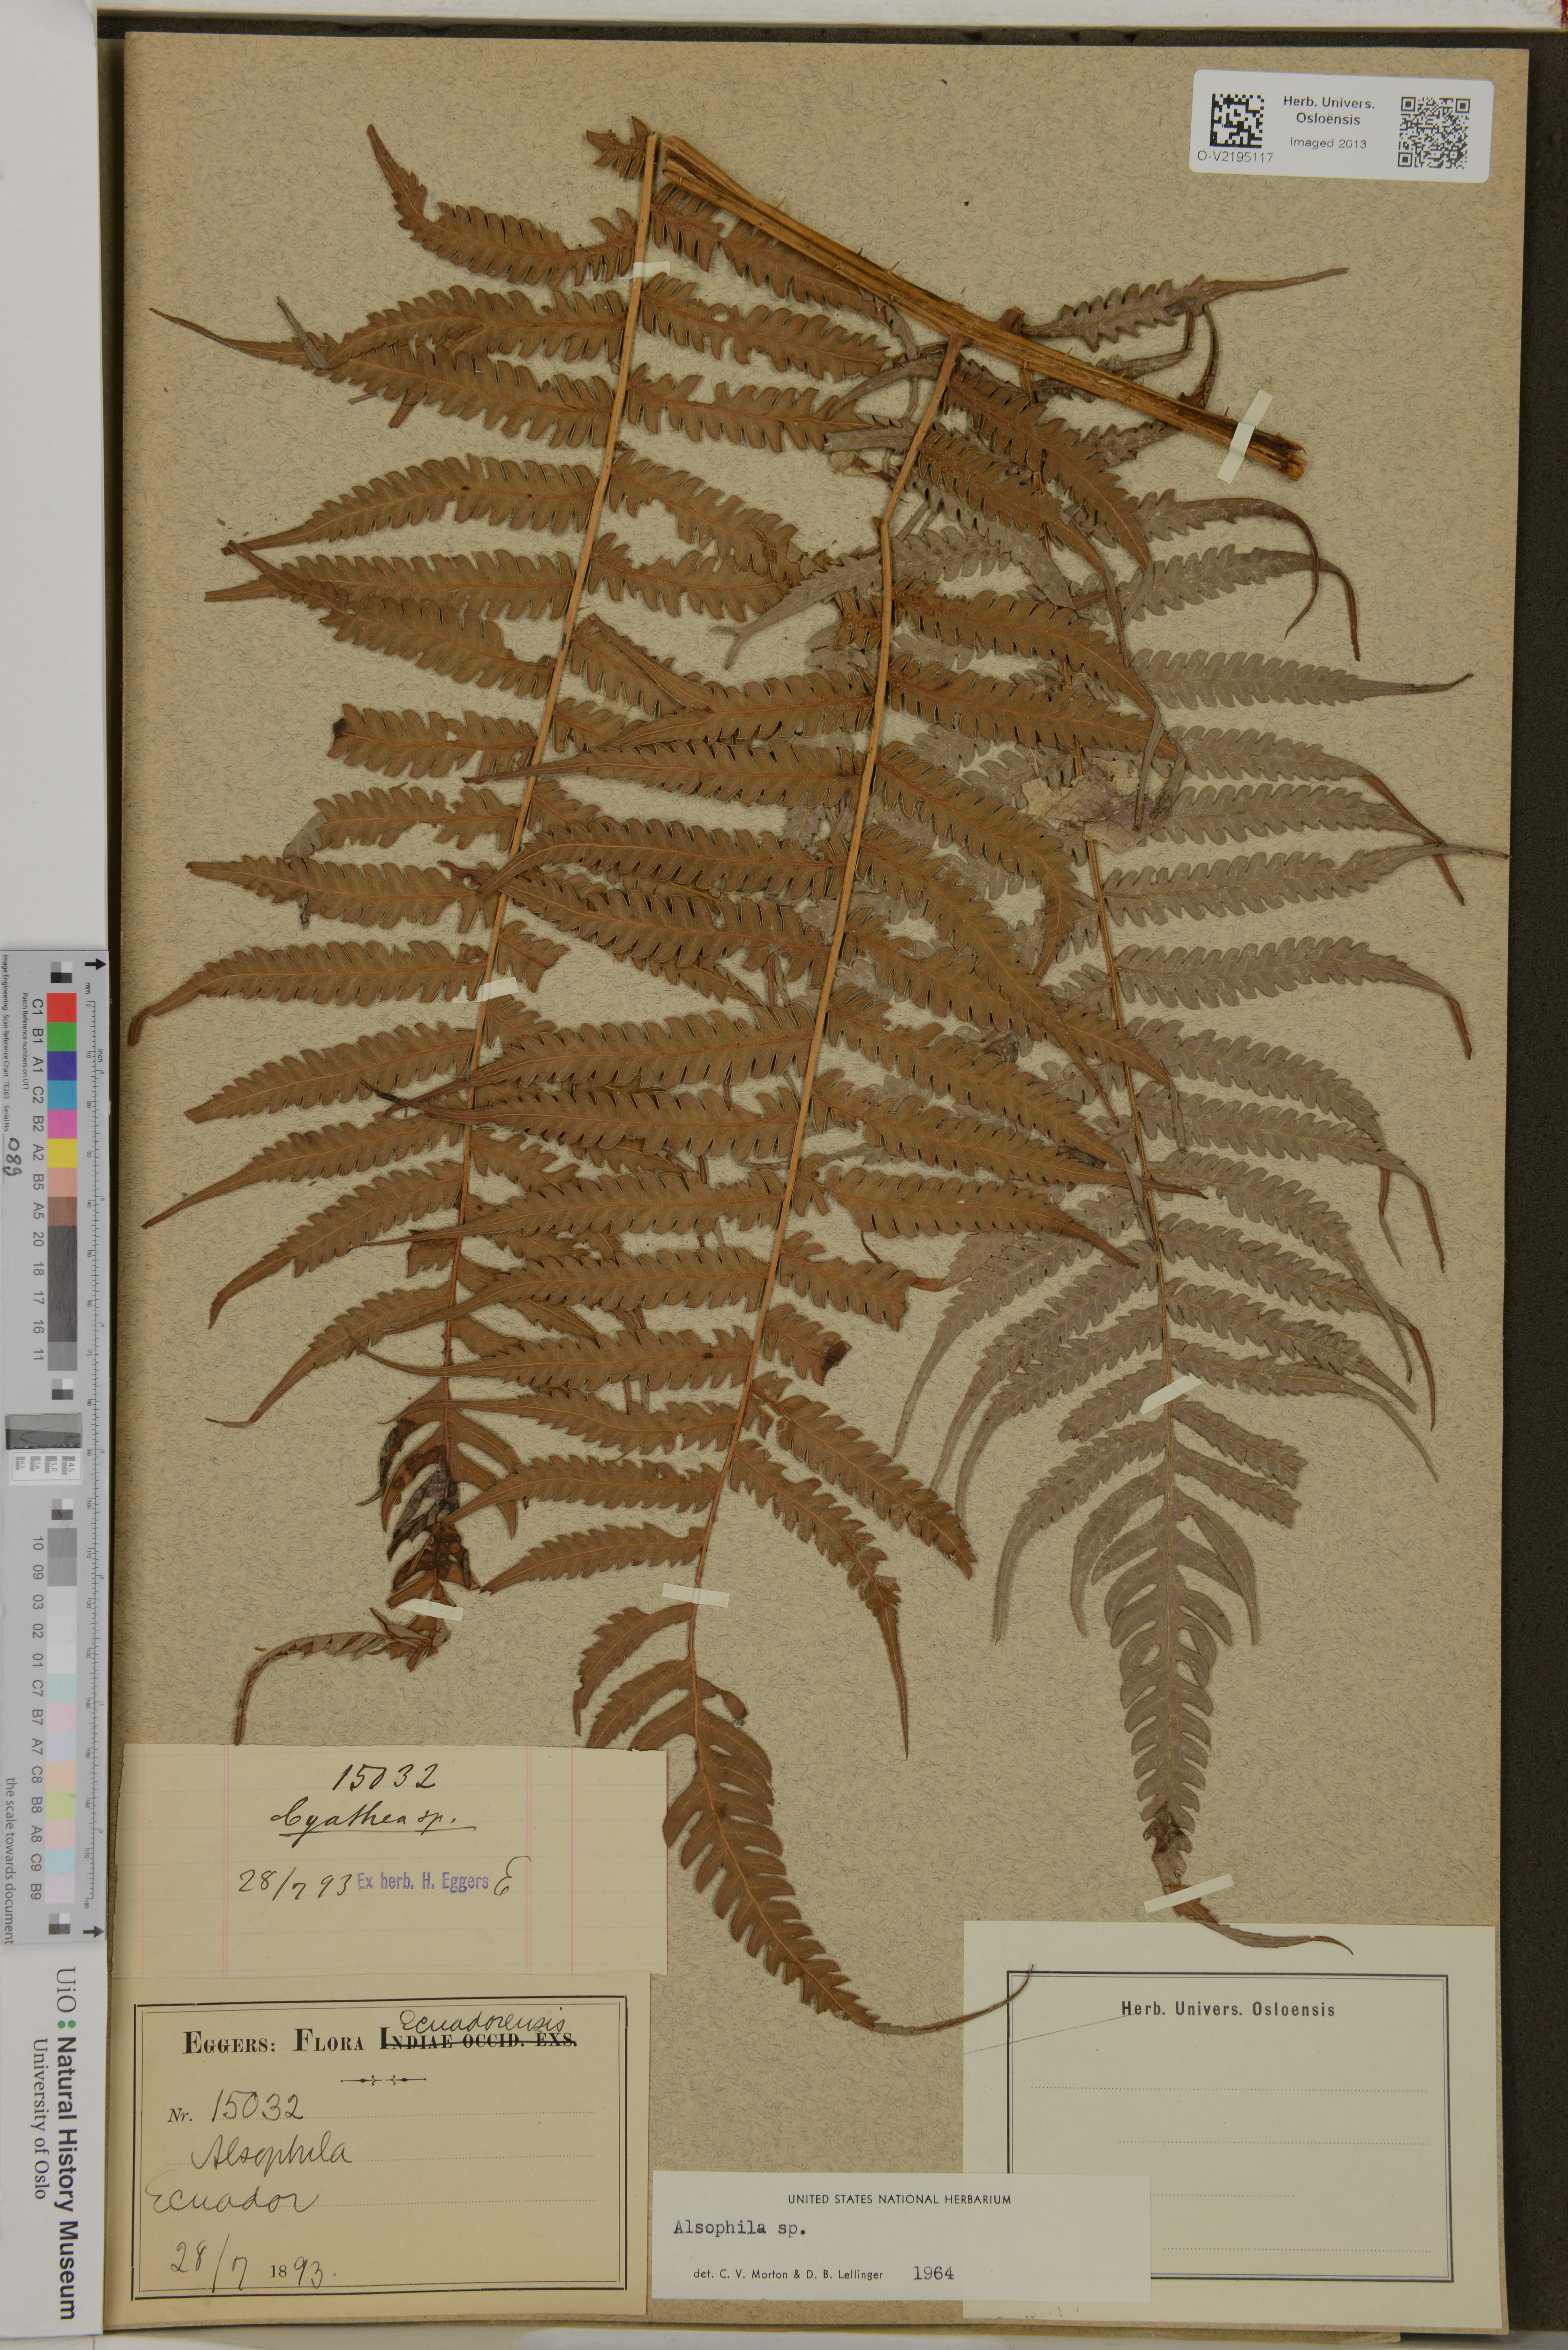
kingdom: Plantae
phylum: Tracheophyta
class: Polypodiopsida
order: Cyatheales
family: Cyatheaceae
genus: Alsophila
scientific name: Alsophila
